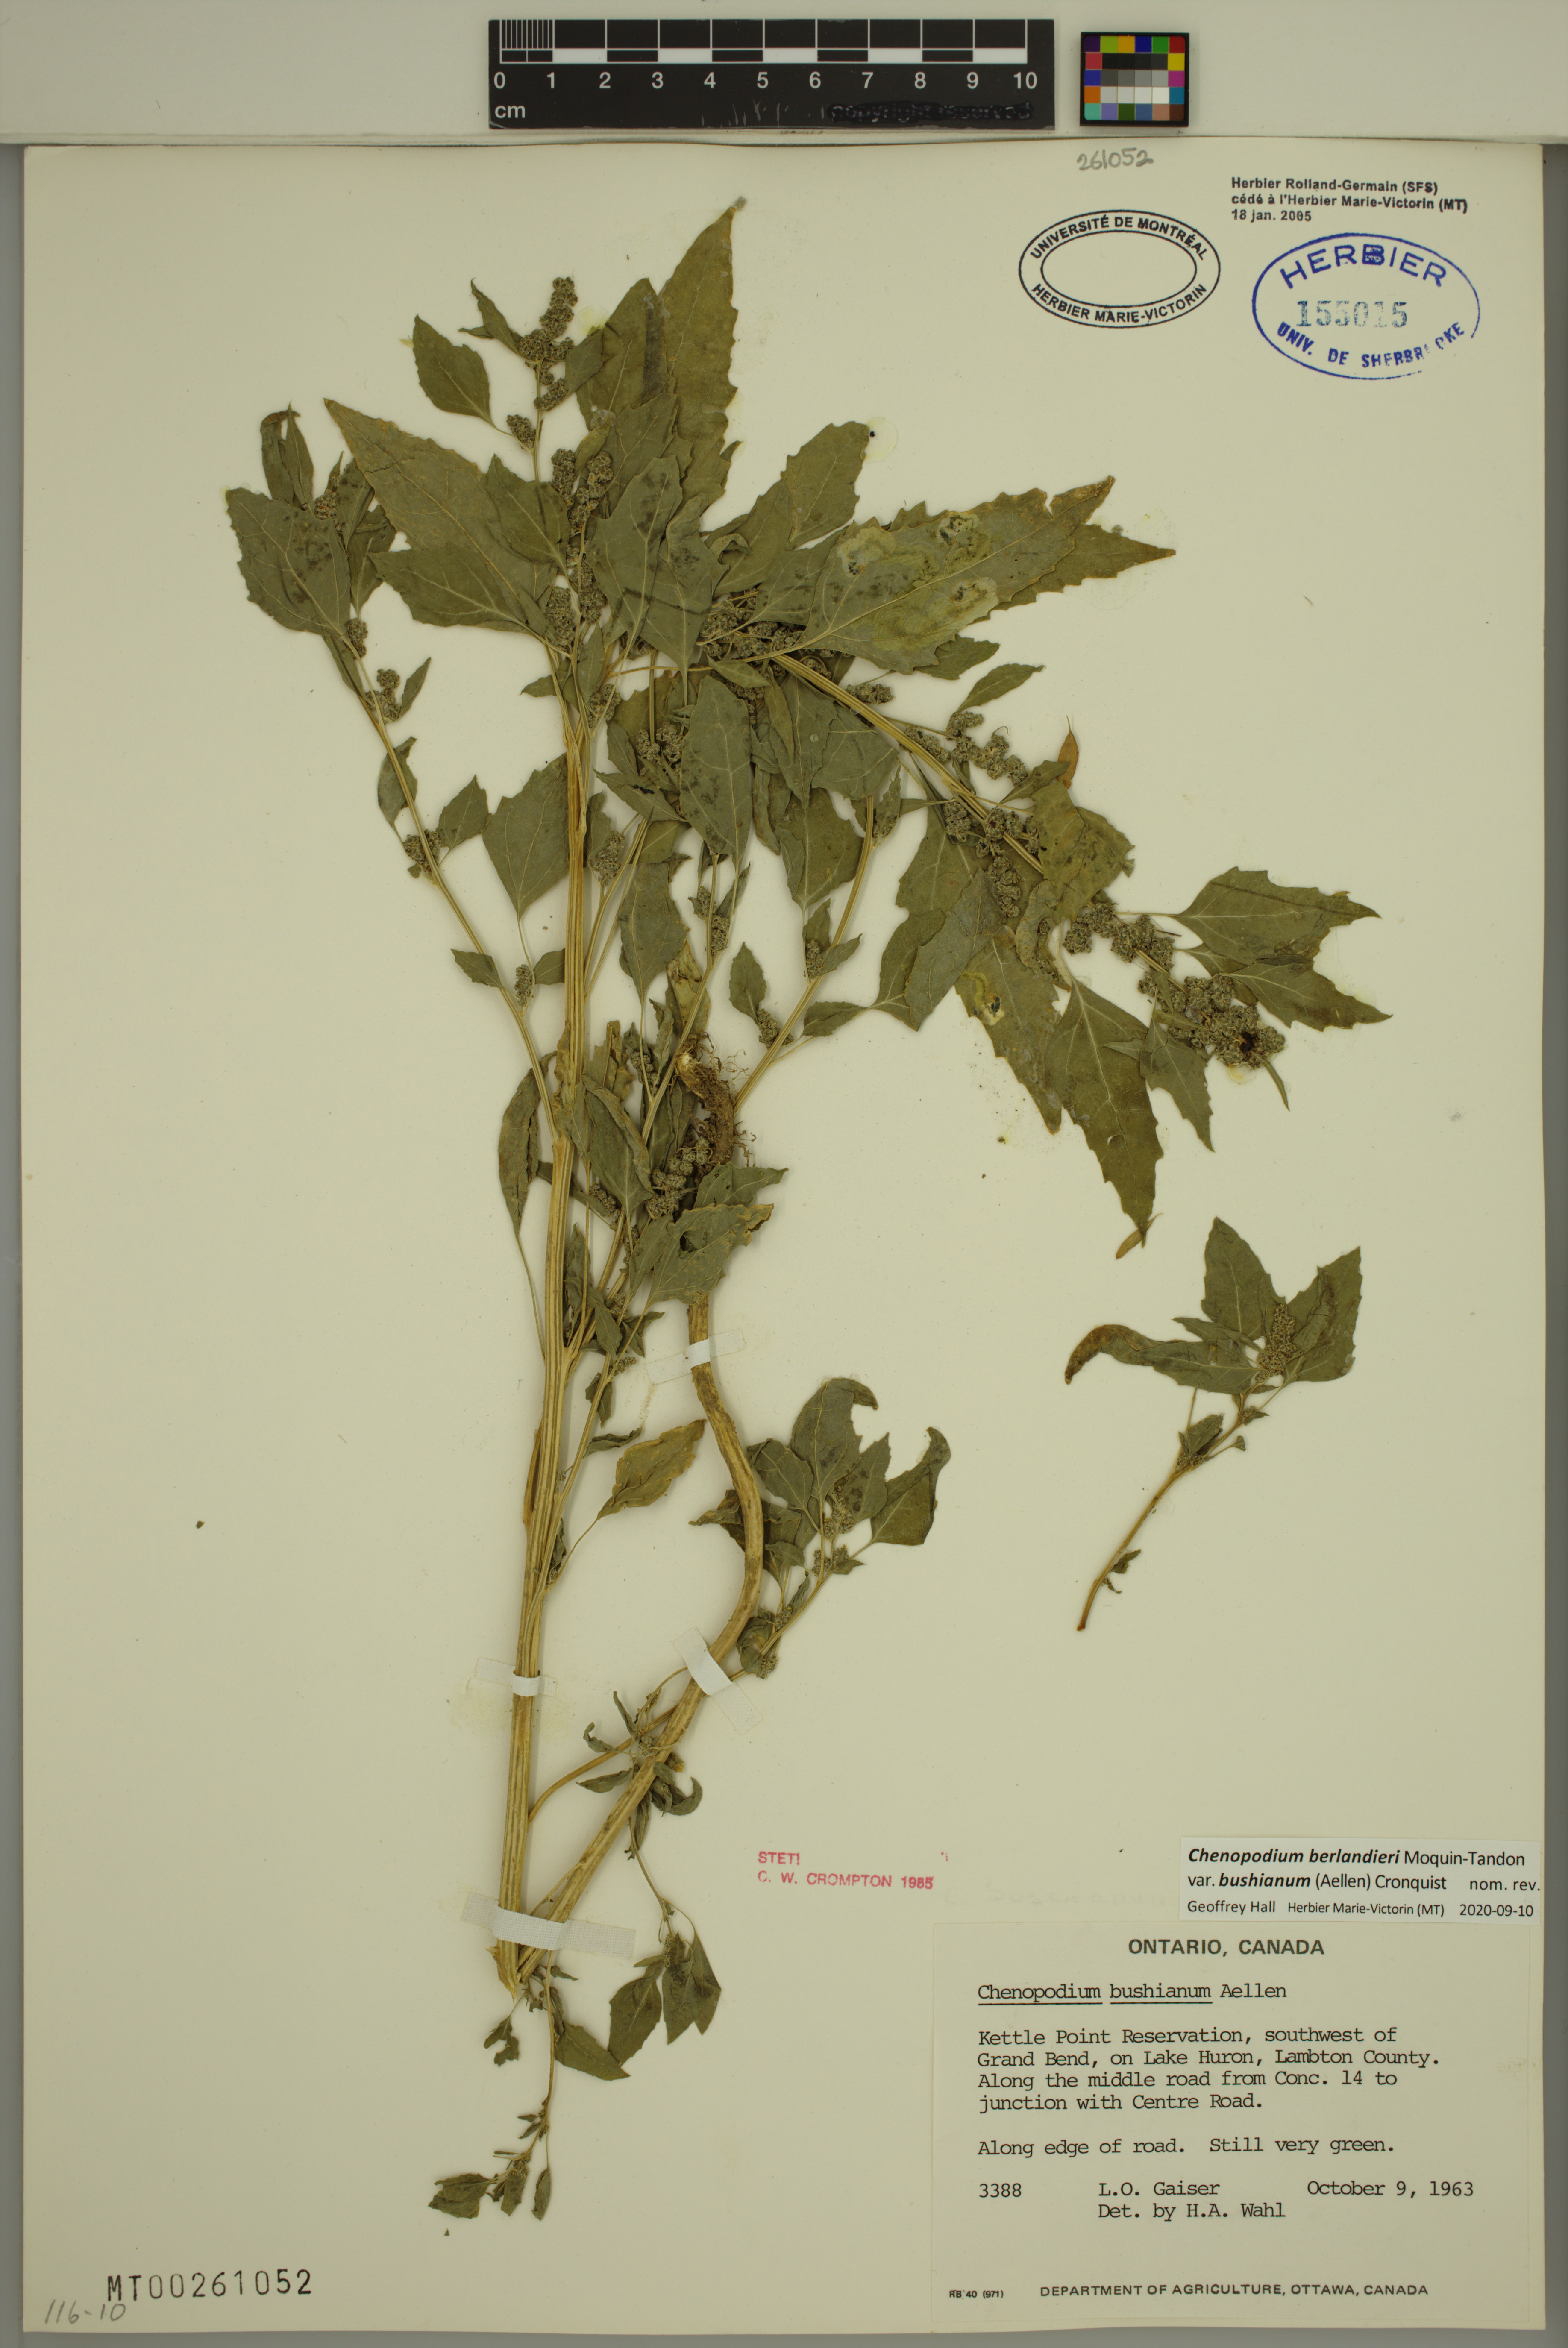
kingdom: Plantae
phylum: Tracheophyta
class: Magnoliopsida
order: Caryophyllales
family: Amaranthaceae
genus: Chenopodium
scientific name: Chenopodium berlandieri
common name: Pit-seed goosefoot
